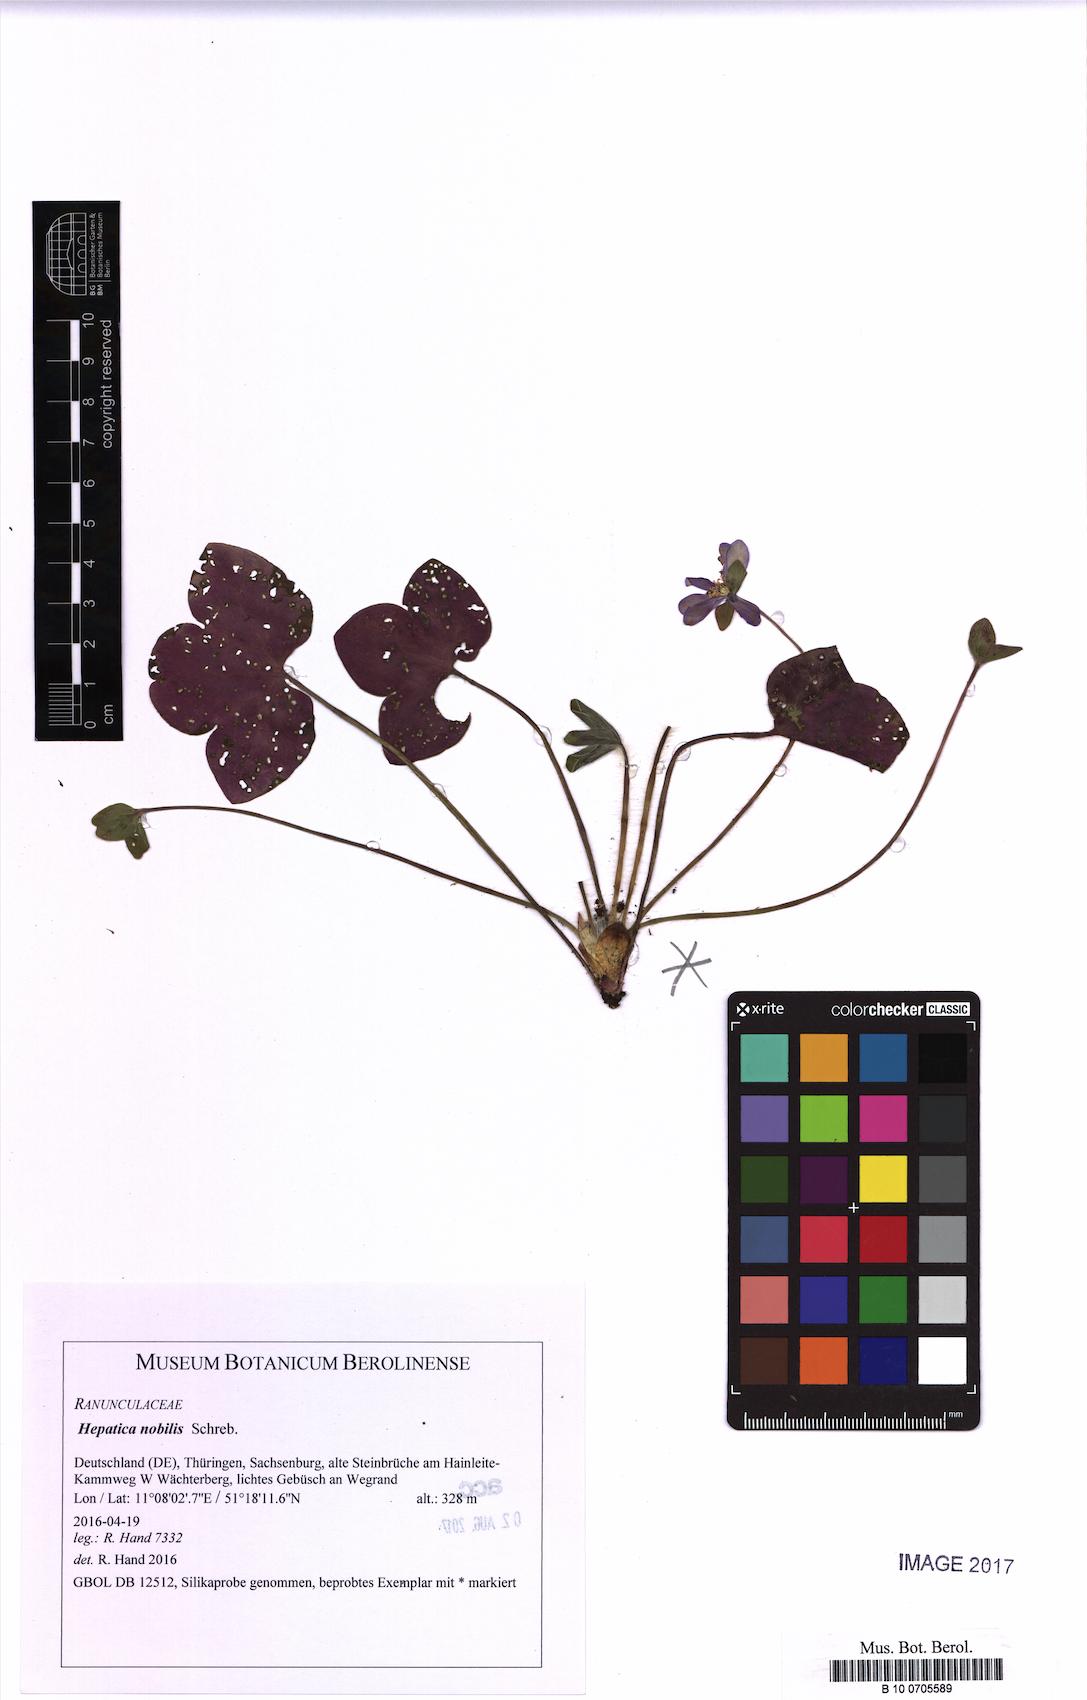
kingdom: Plantae
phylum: Tracheophyta
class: Magnoliopsida
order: Ranunculales
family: Ranunculaceae
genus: Hepatica
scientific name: Hepatica nobilis
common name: Liverleaf
